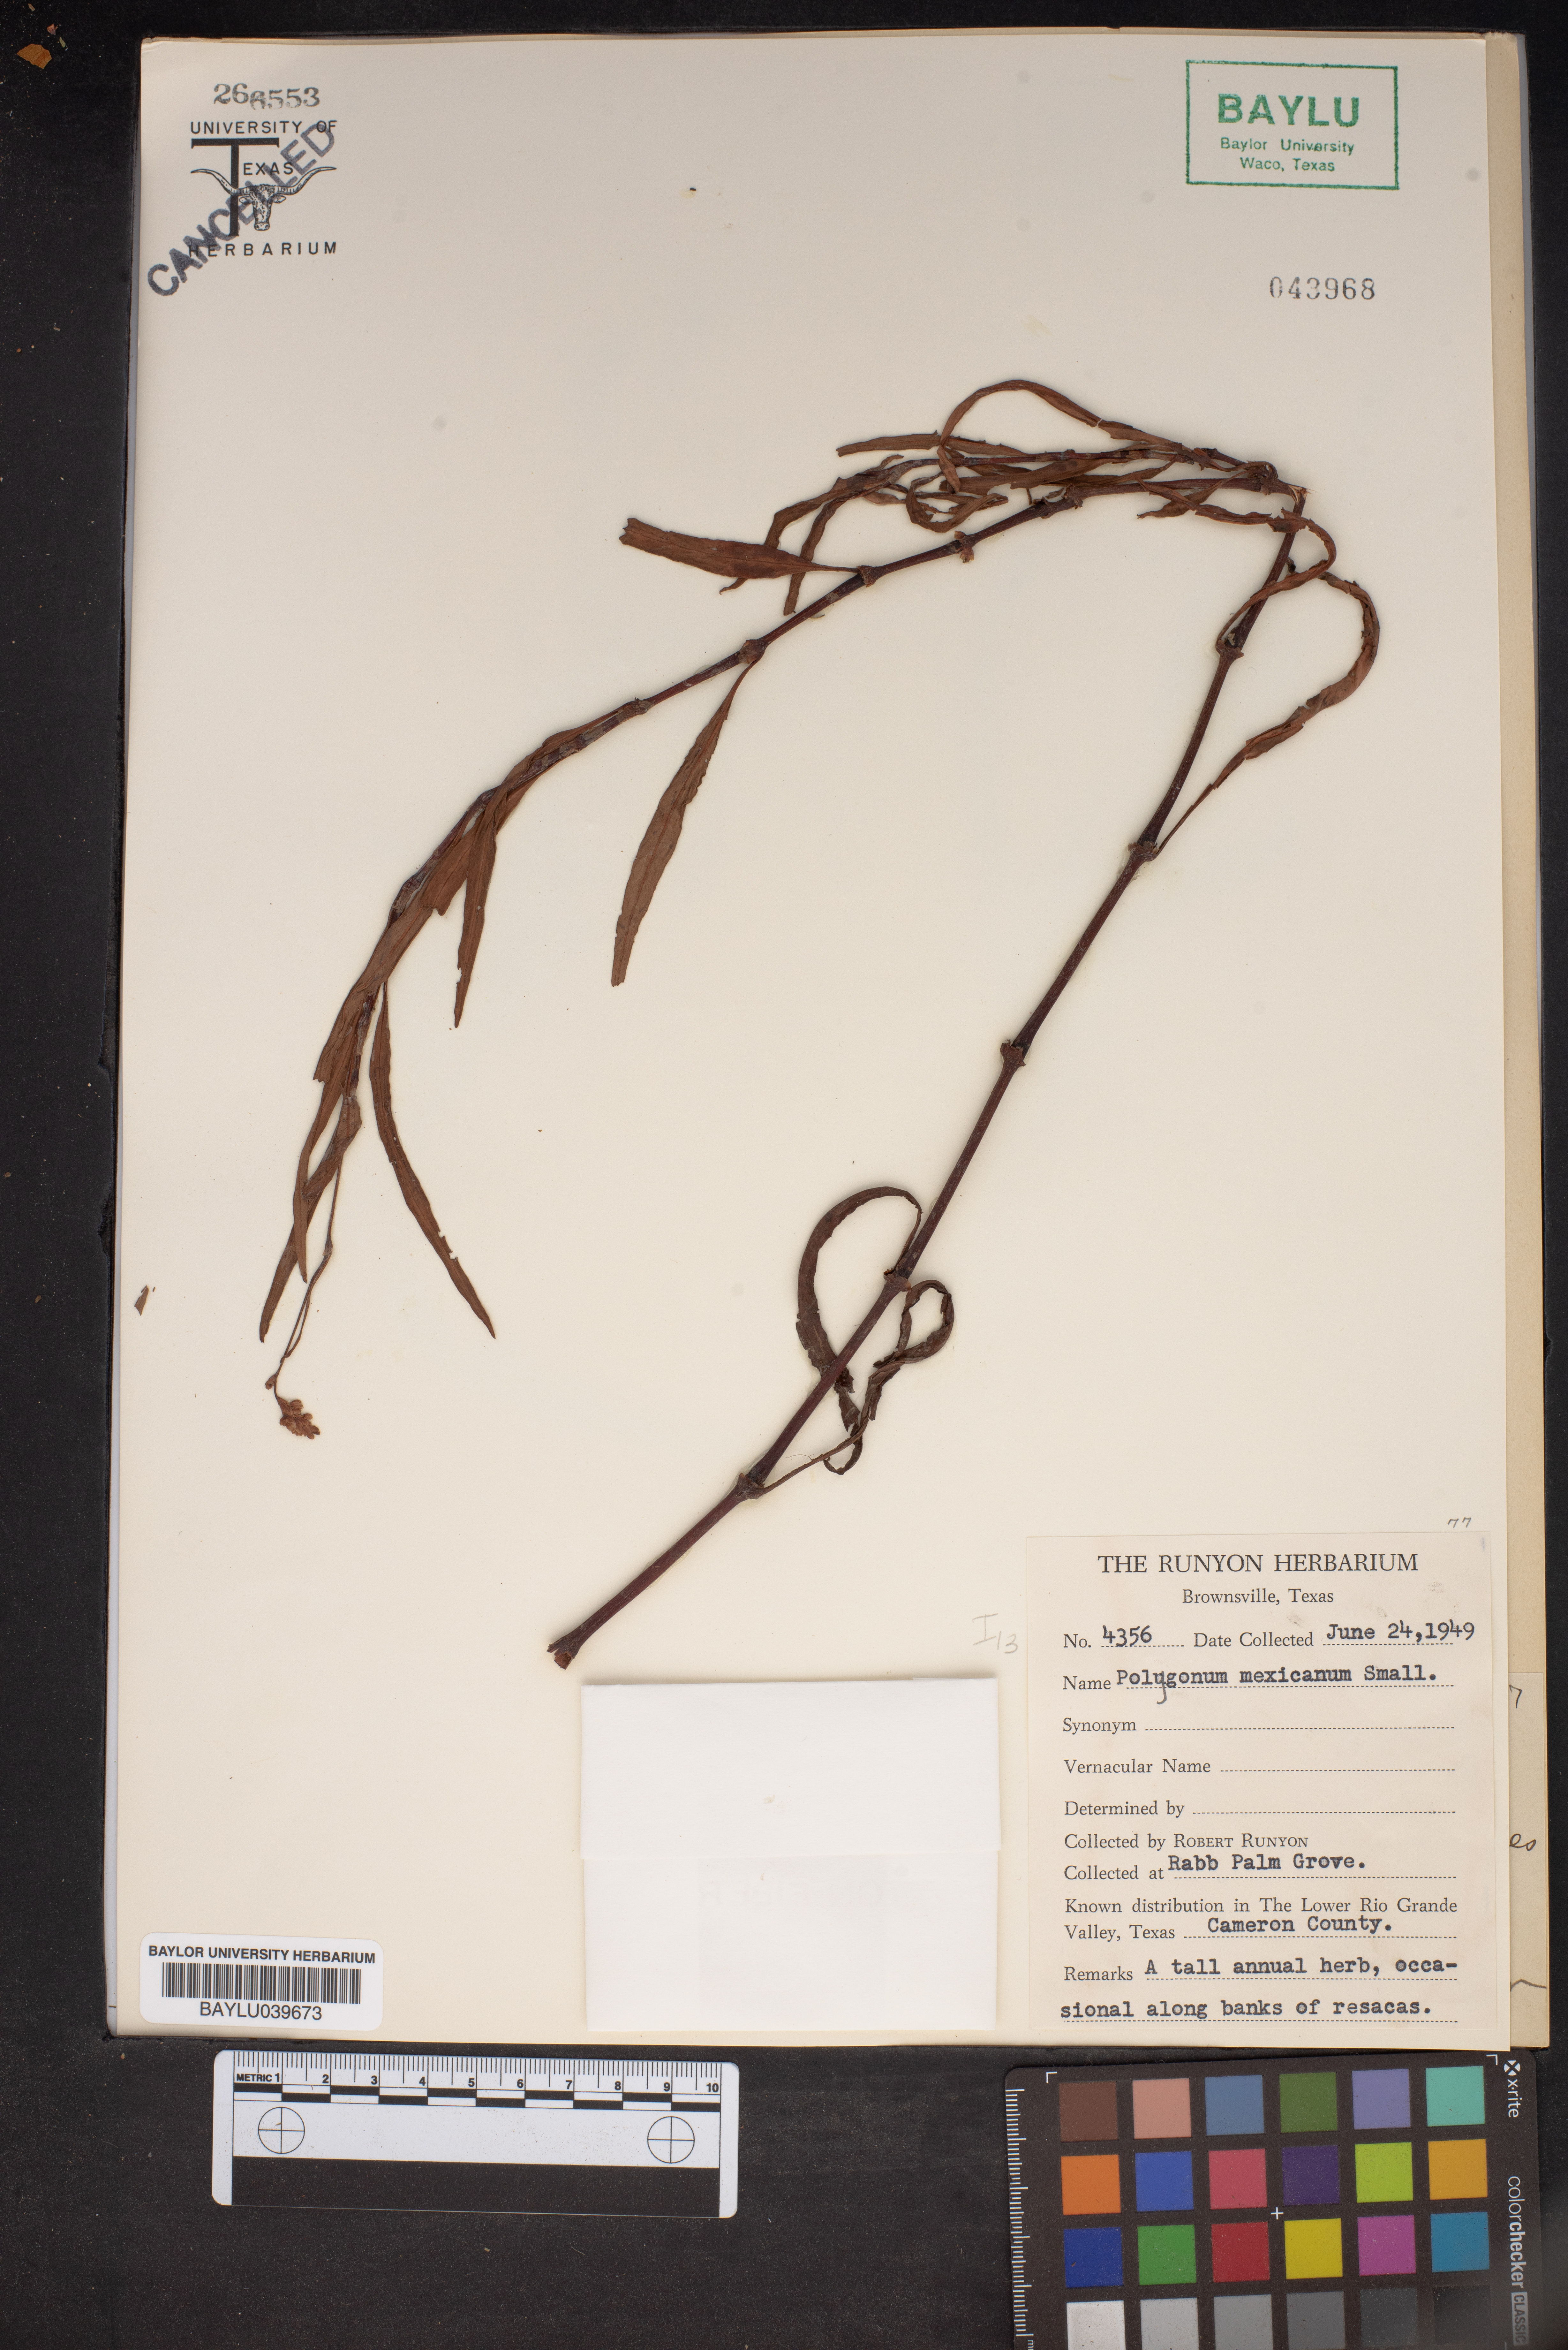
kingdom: Plantae
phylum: Tracheophyta
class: Magnoliopsida
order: Caryophyllales
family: Polygonaceae
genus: Persicaria
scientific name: Persicaria segetum
